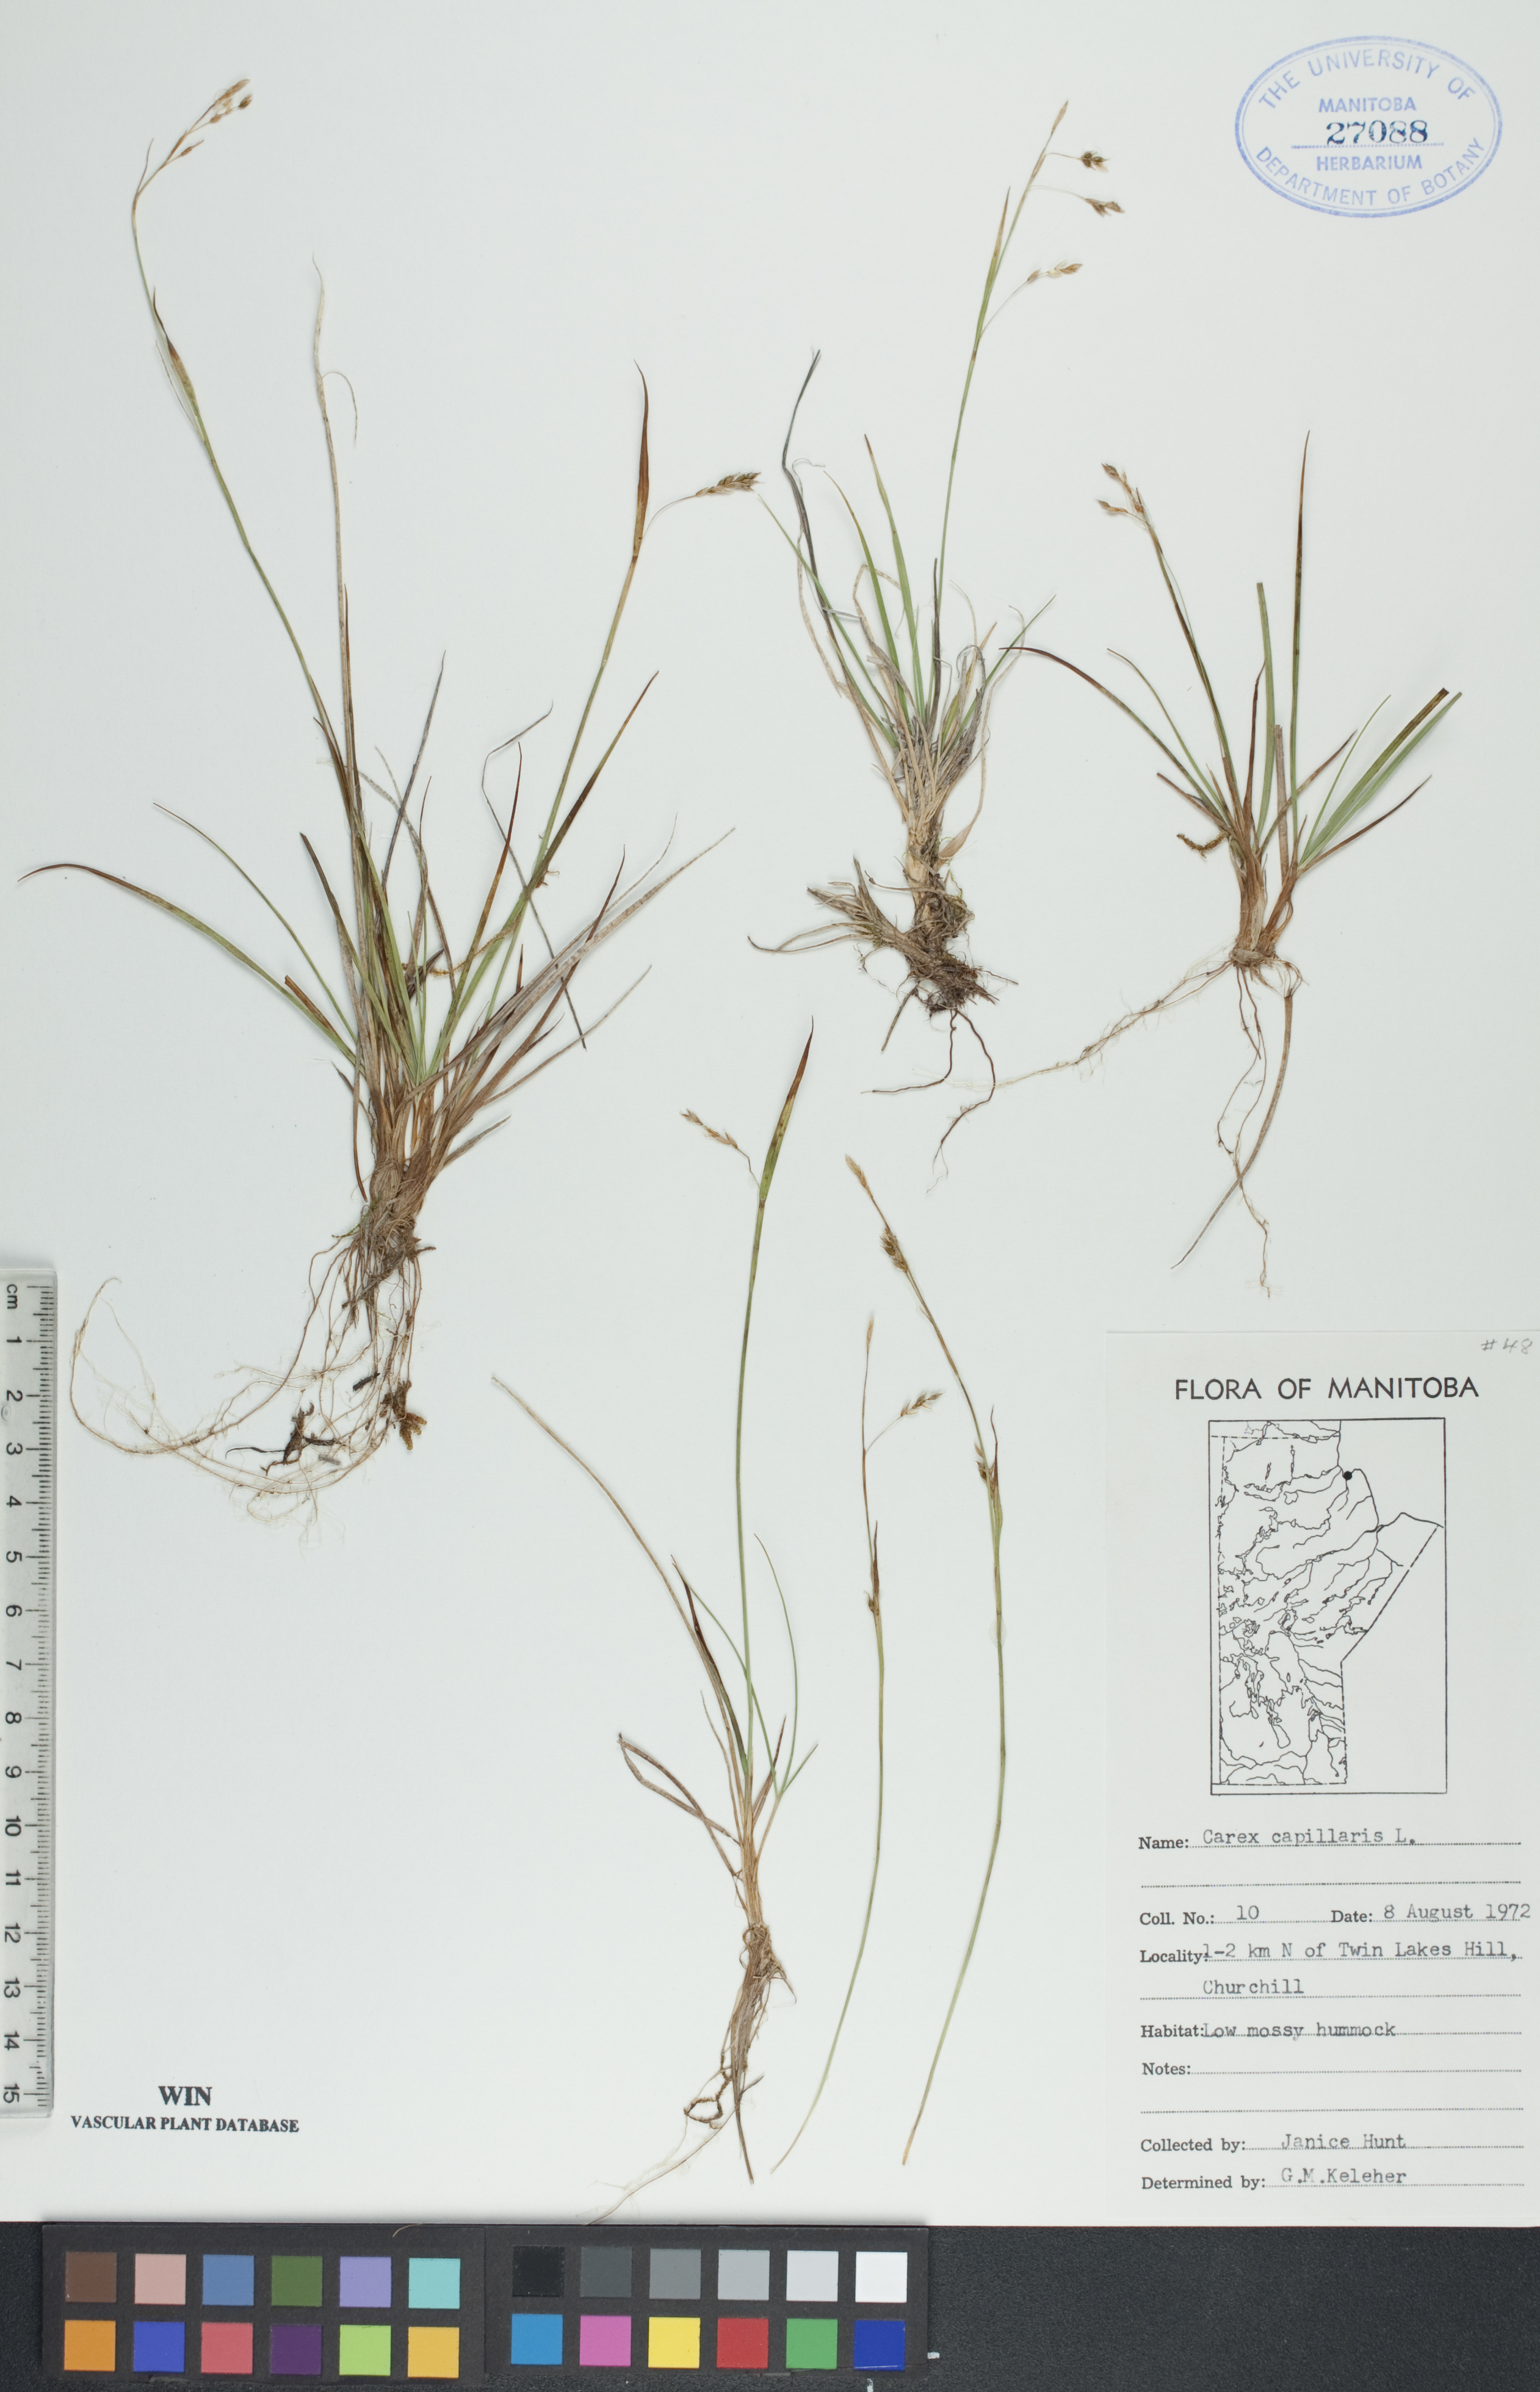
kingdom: Plantae
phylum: Tracheophyta
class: Liliopsida
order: Poales
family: Cyperaceae
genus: Carex
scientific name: Carex capillaris
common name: Hair sedge
